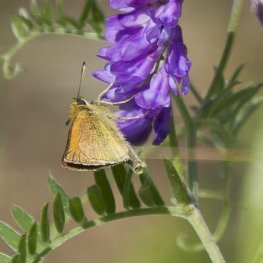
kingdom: Animalia
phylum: Arthropoda
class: Insecta
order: Lepidoptera
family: Hesperiidae
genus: Thymelicus
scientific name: Thymelicus lineola
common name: European Skipper
